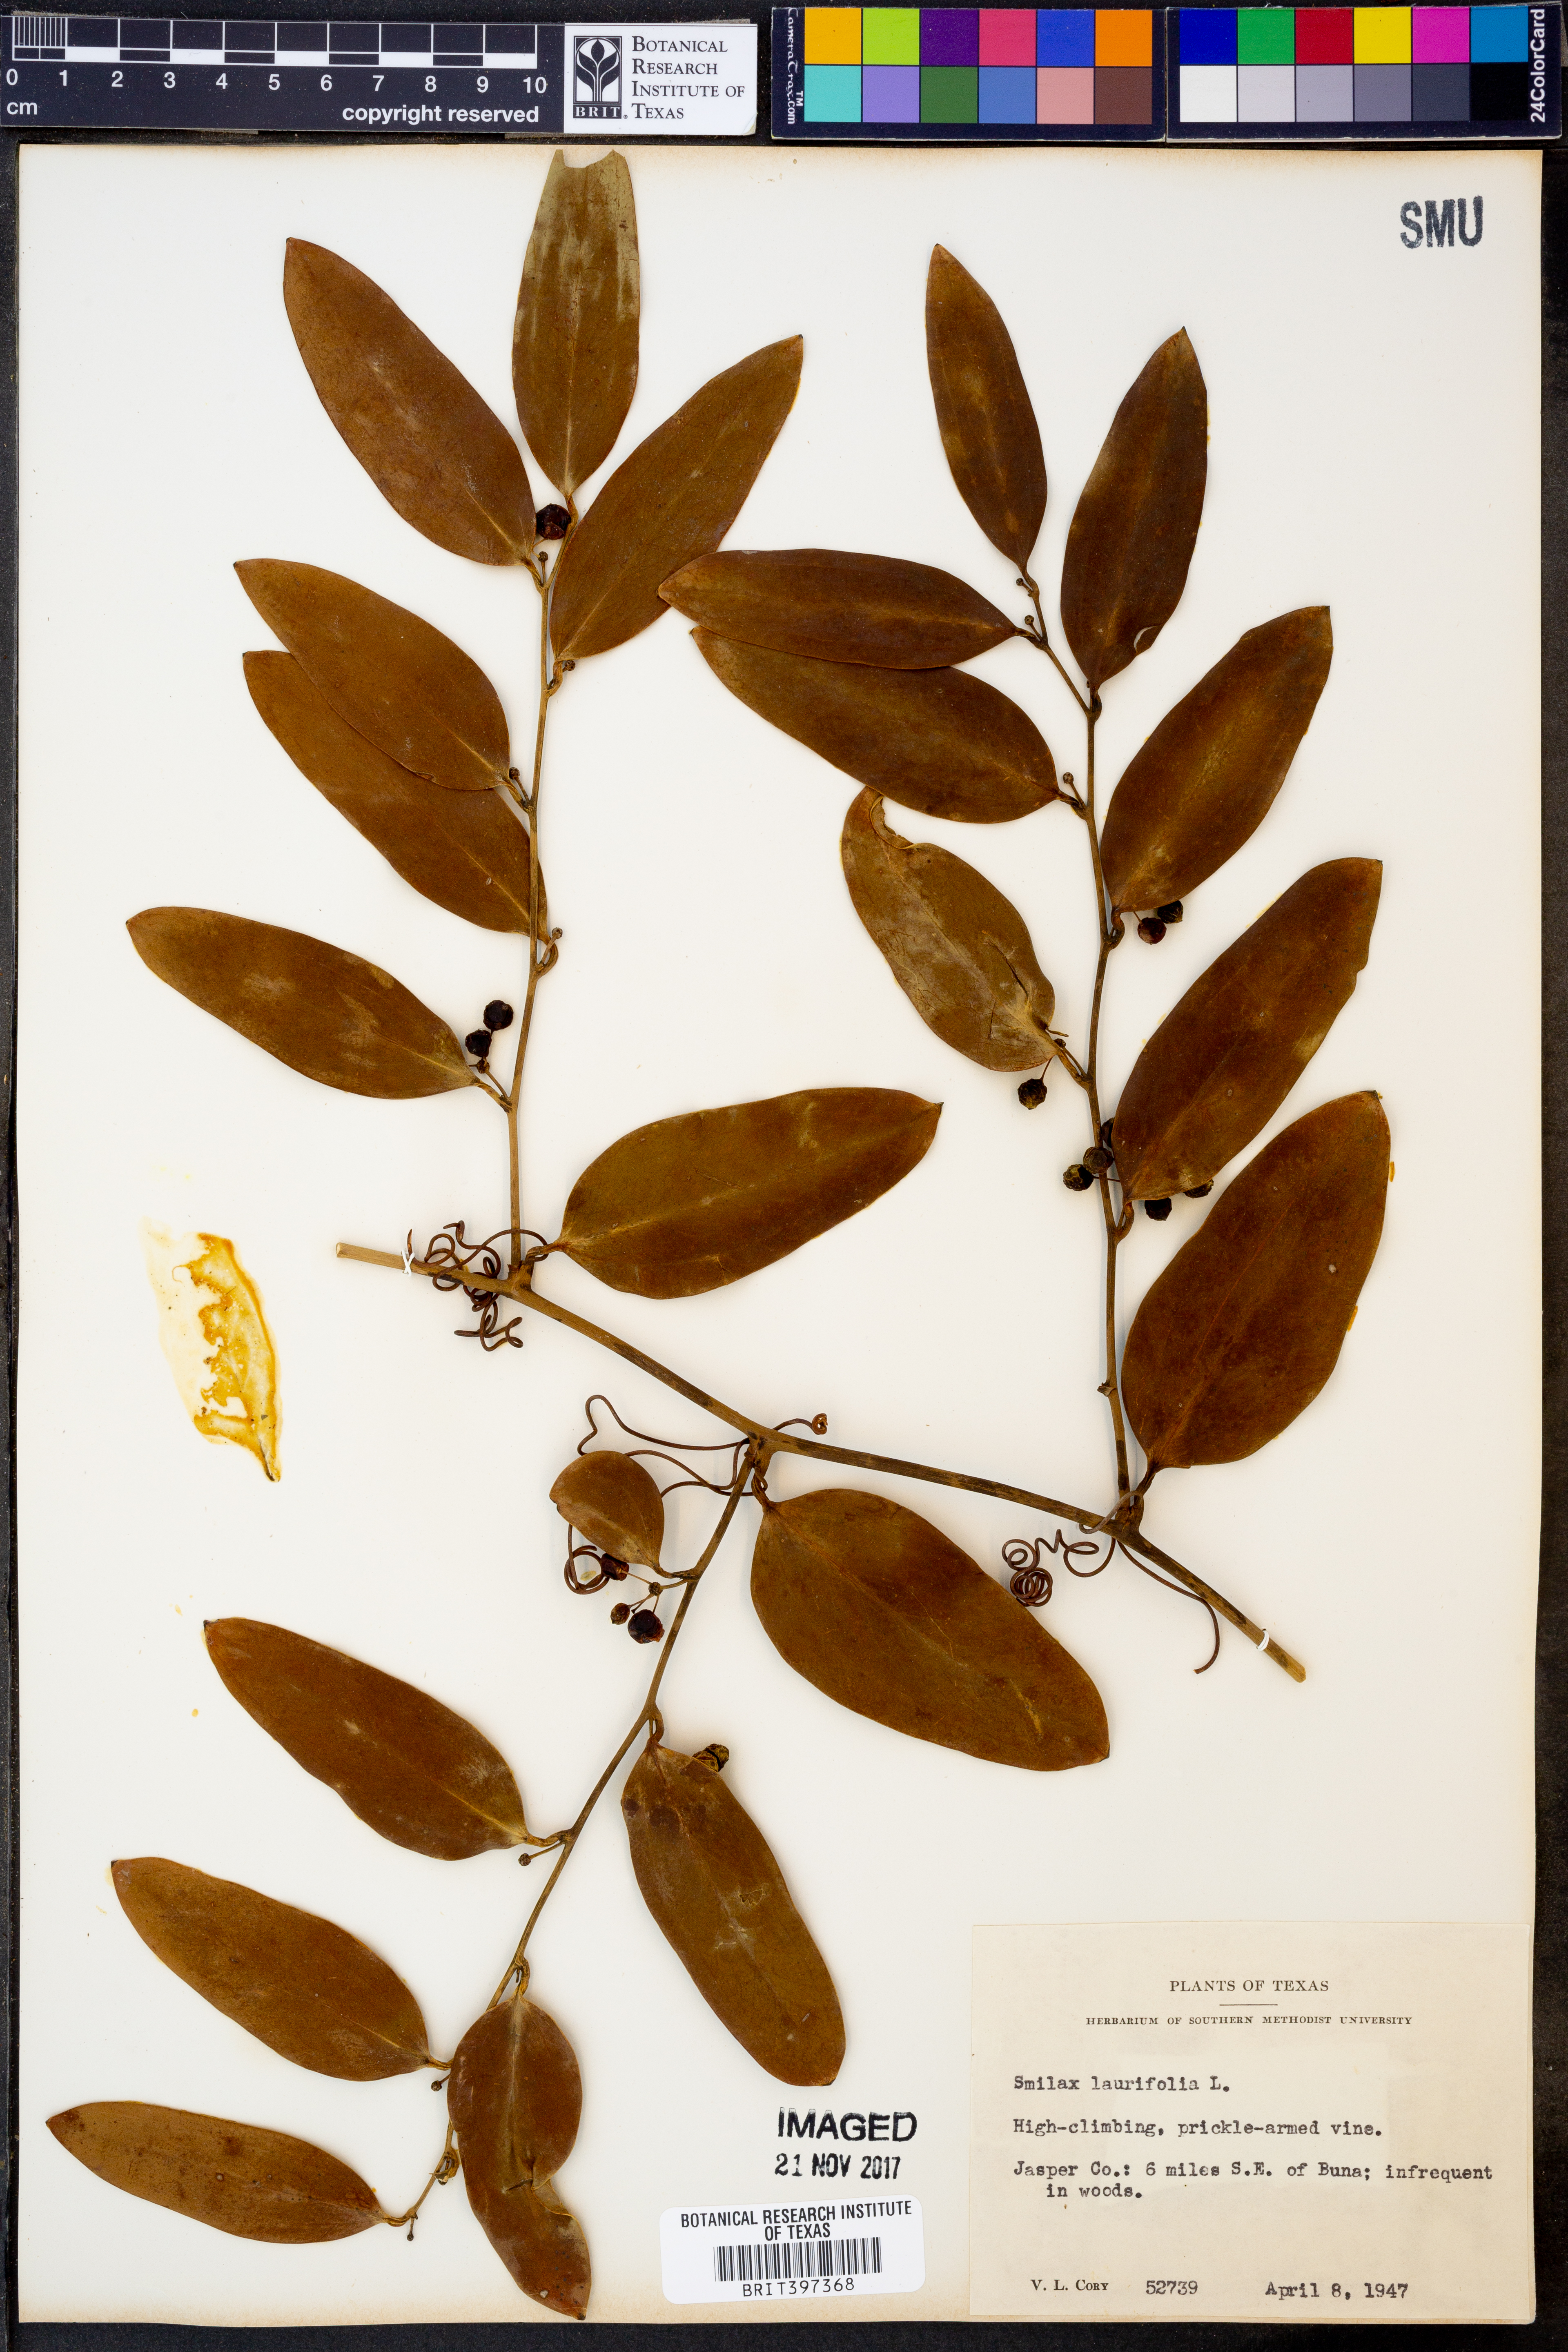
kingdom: Plantae
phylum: Tracheophyta
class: Liliopsida
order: Liliales
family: Smilacaceae
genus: Smilax
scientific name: Smilax laurifolia
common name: Bamboovine
